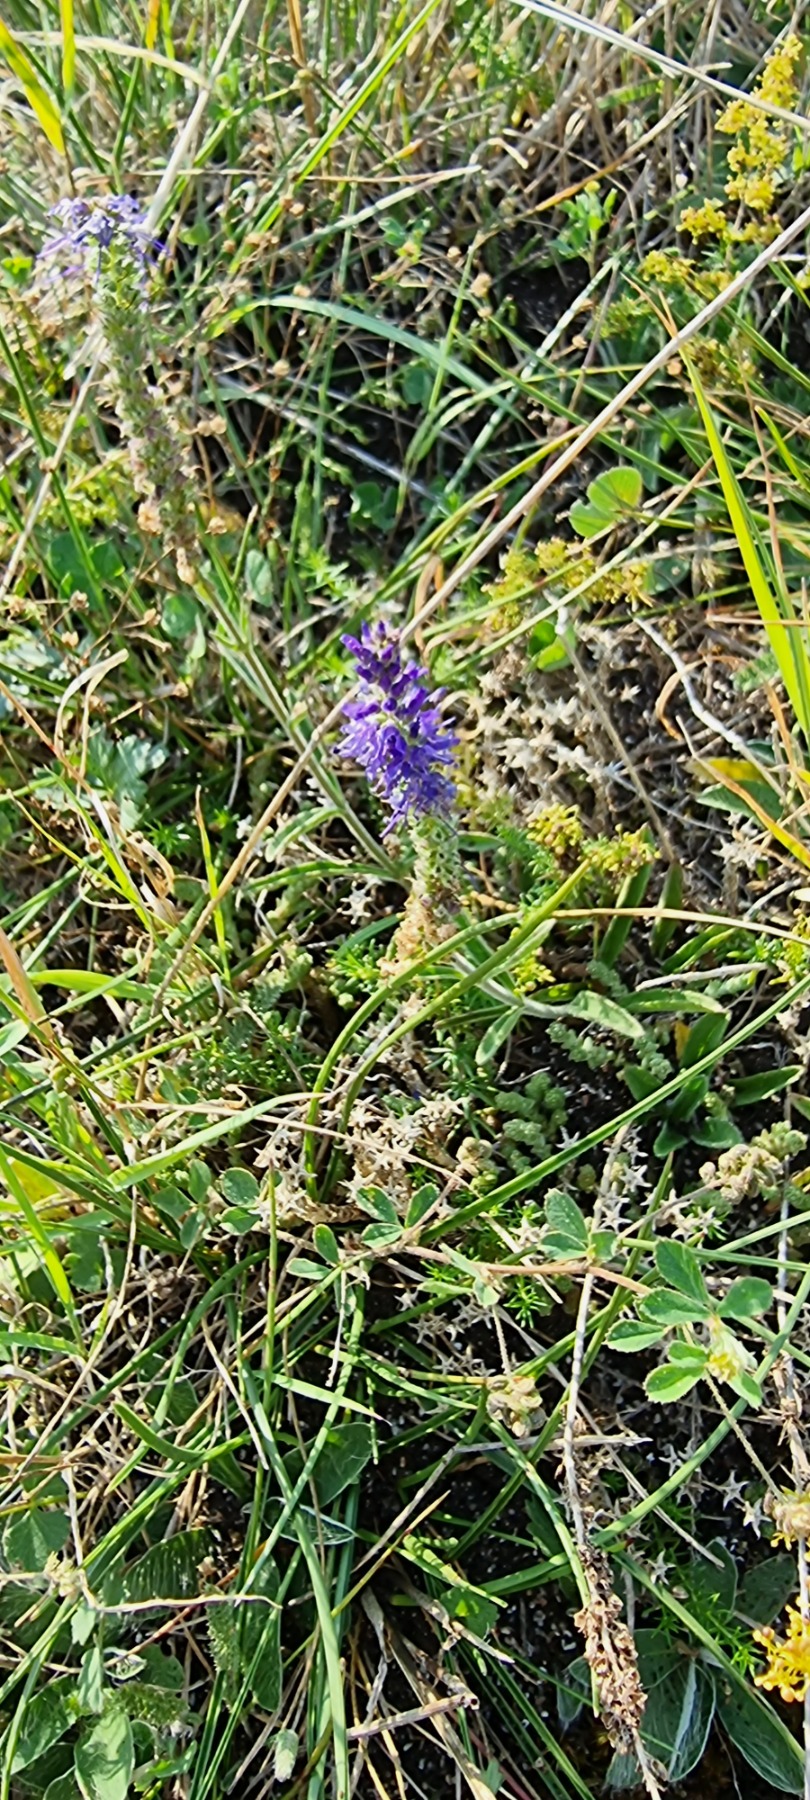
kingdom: Plantae
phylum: Tracheophyta
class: Magnoliopsida
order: Lamiales
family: Plantaginaceae
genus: Veronica
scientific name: Veronica spicata
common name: Aks-ærenpris
